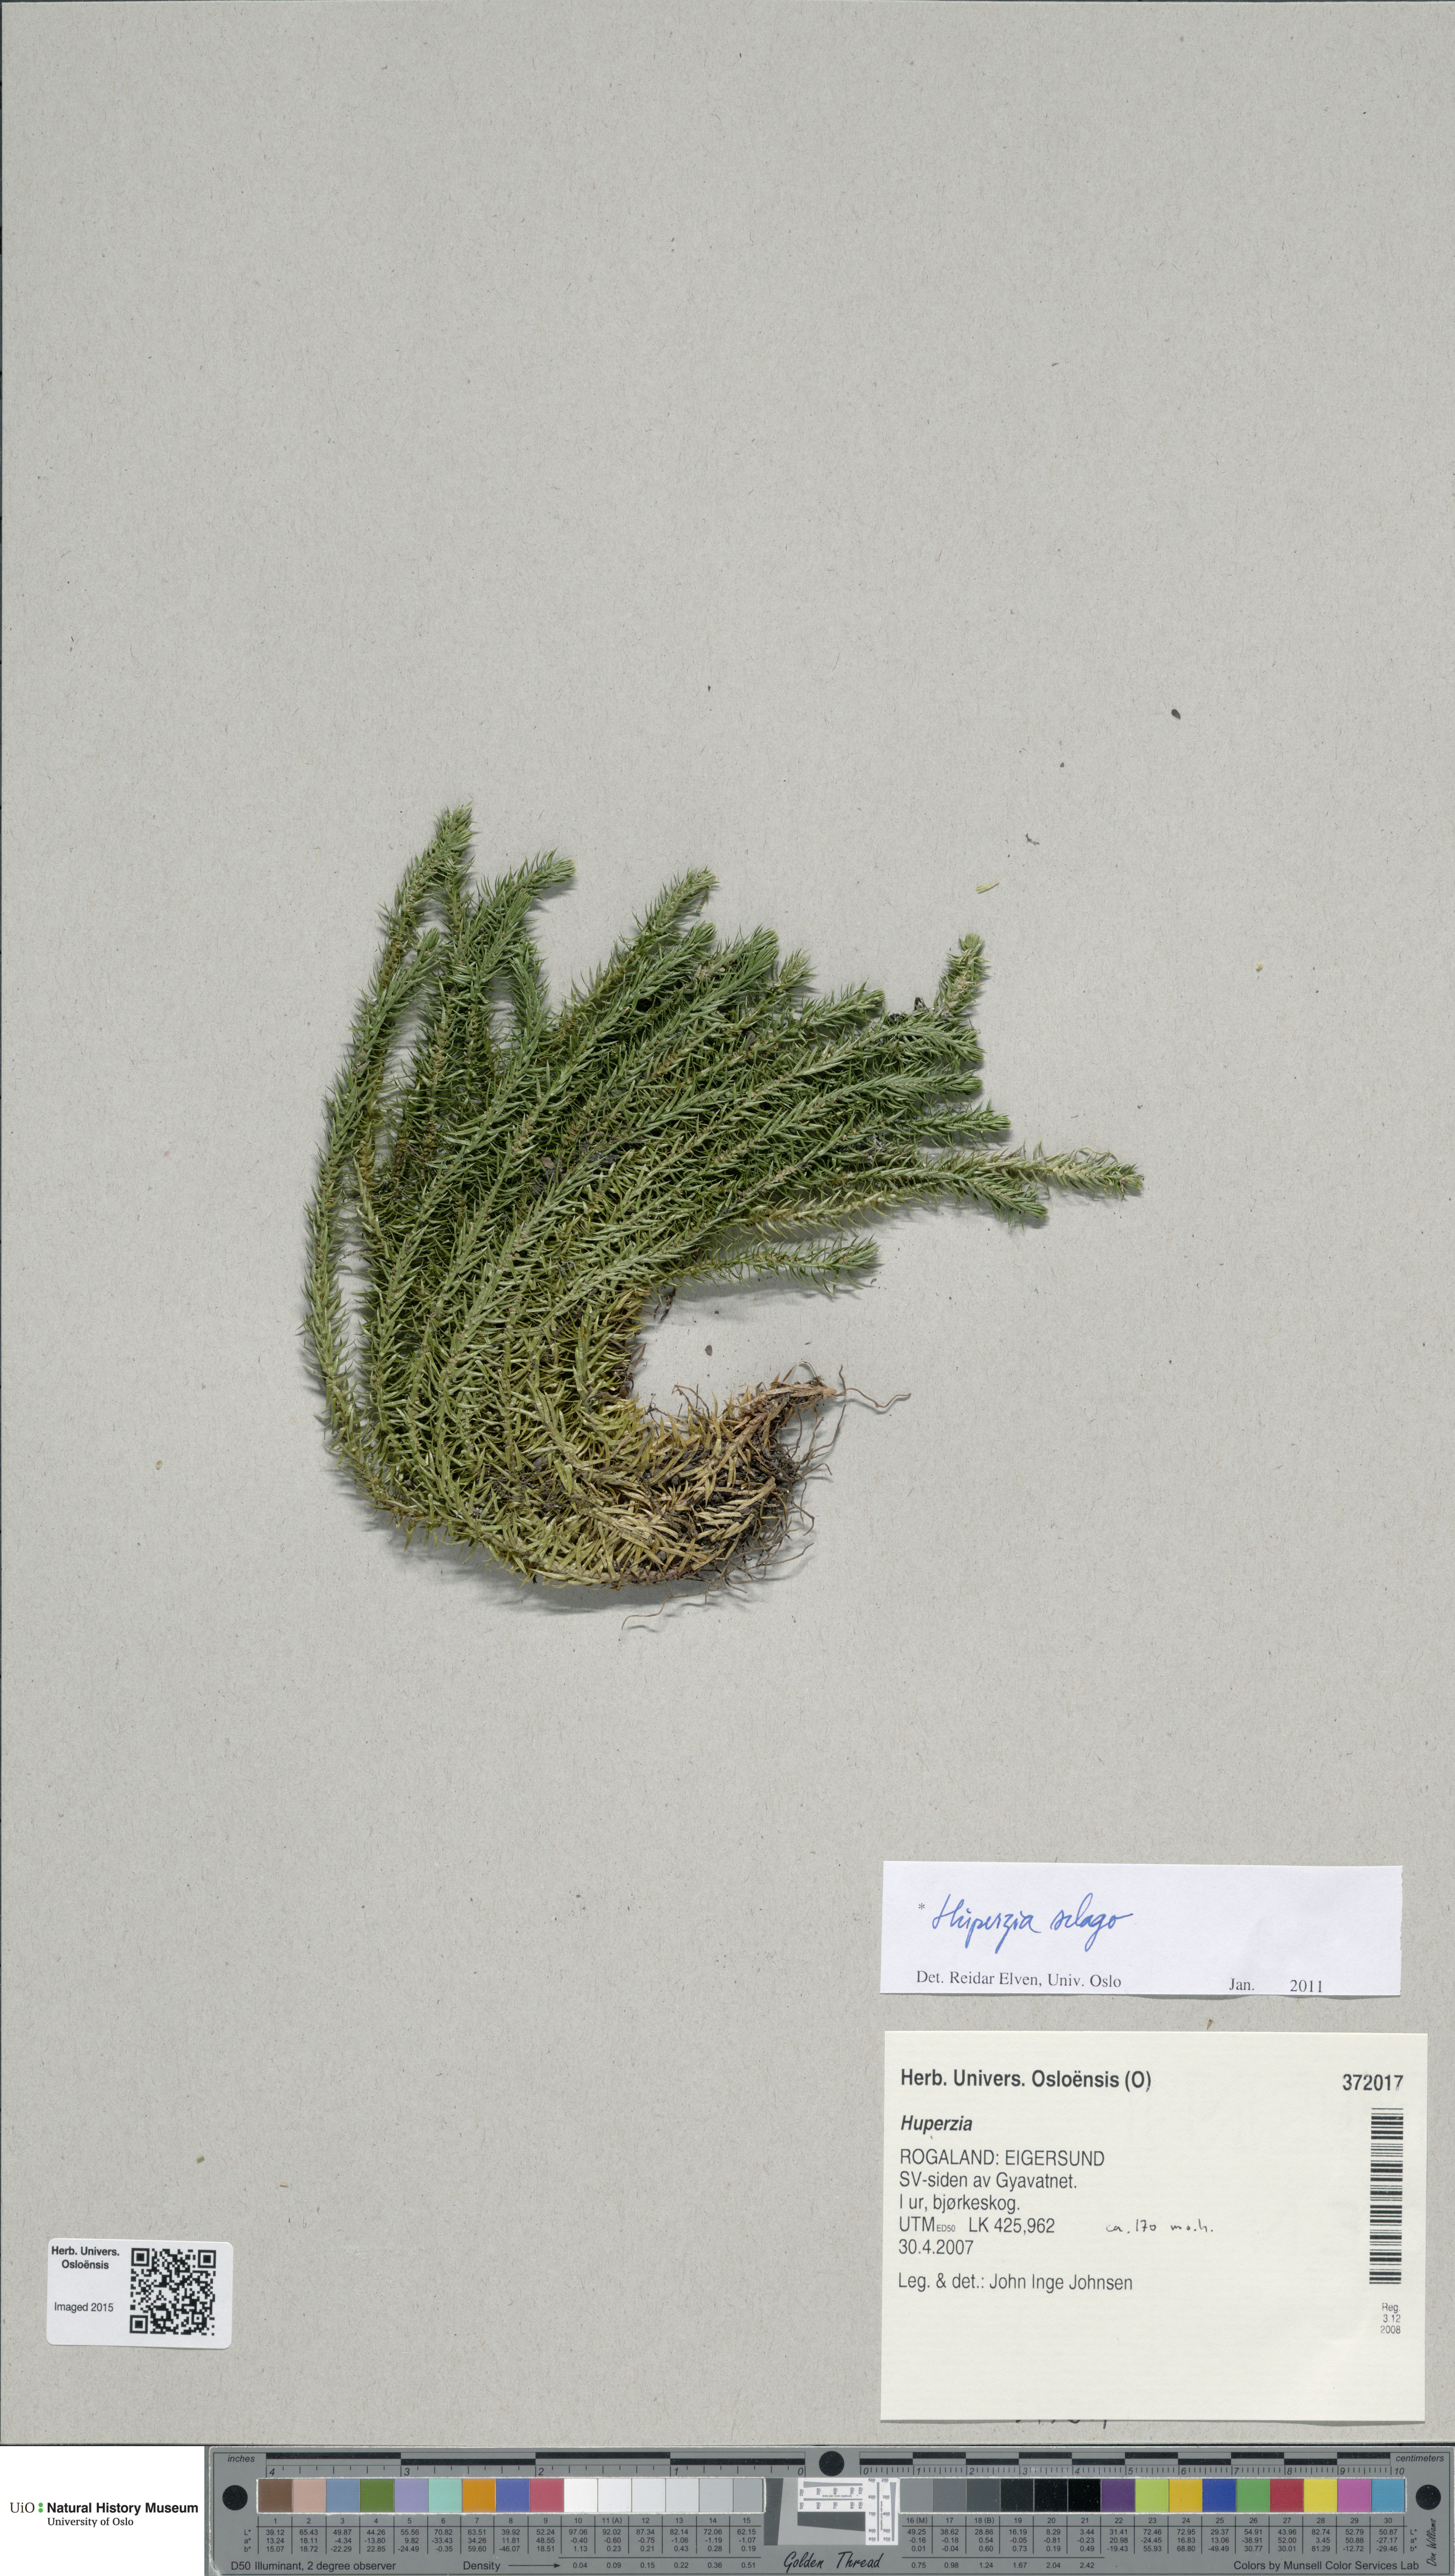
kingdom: Plantae
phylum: Tracheophyta
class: Lycopodiopsida
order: Lycopodiales
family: Lycopodiaceae
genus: Huperzia
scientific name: Huperzia selago
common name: Northern firmoss
